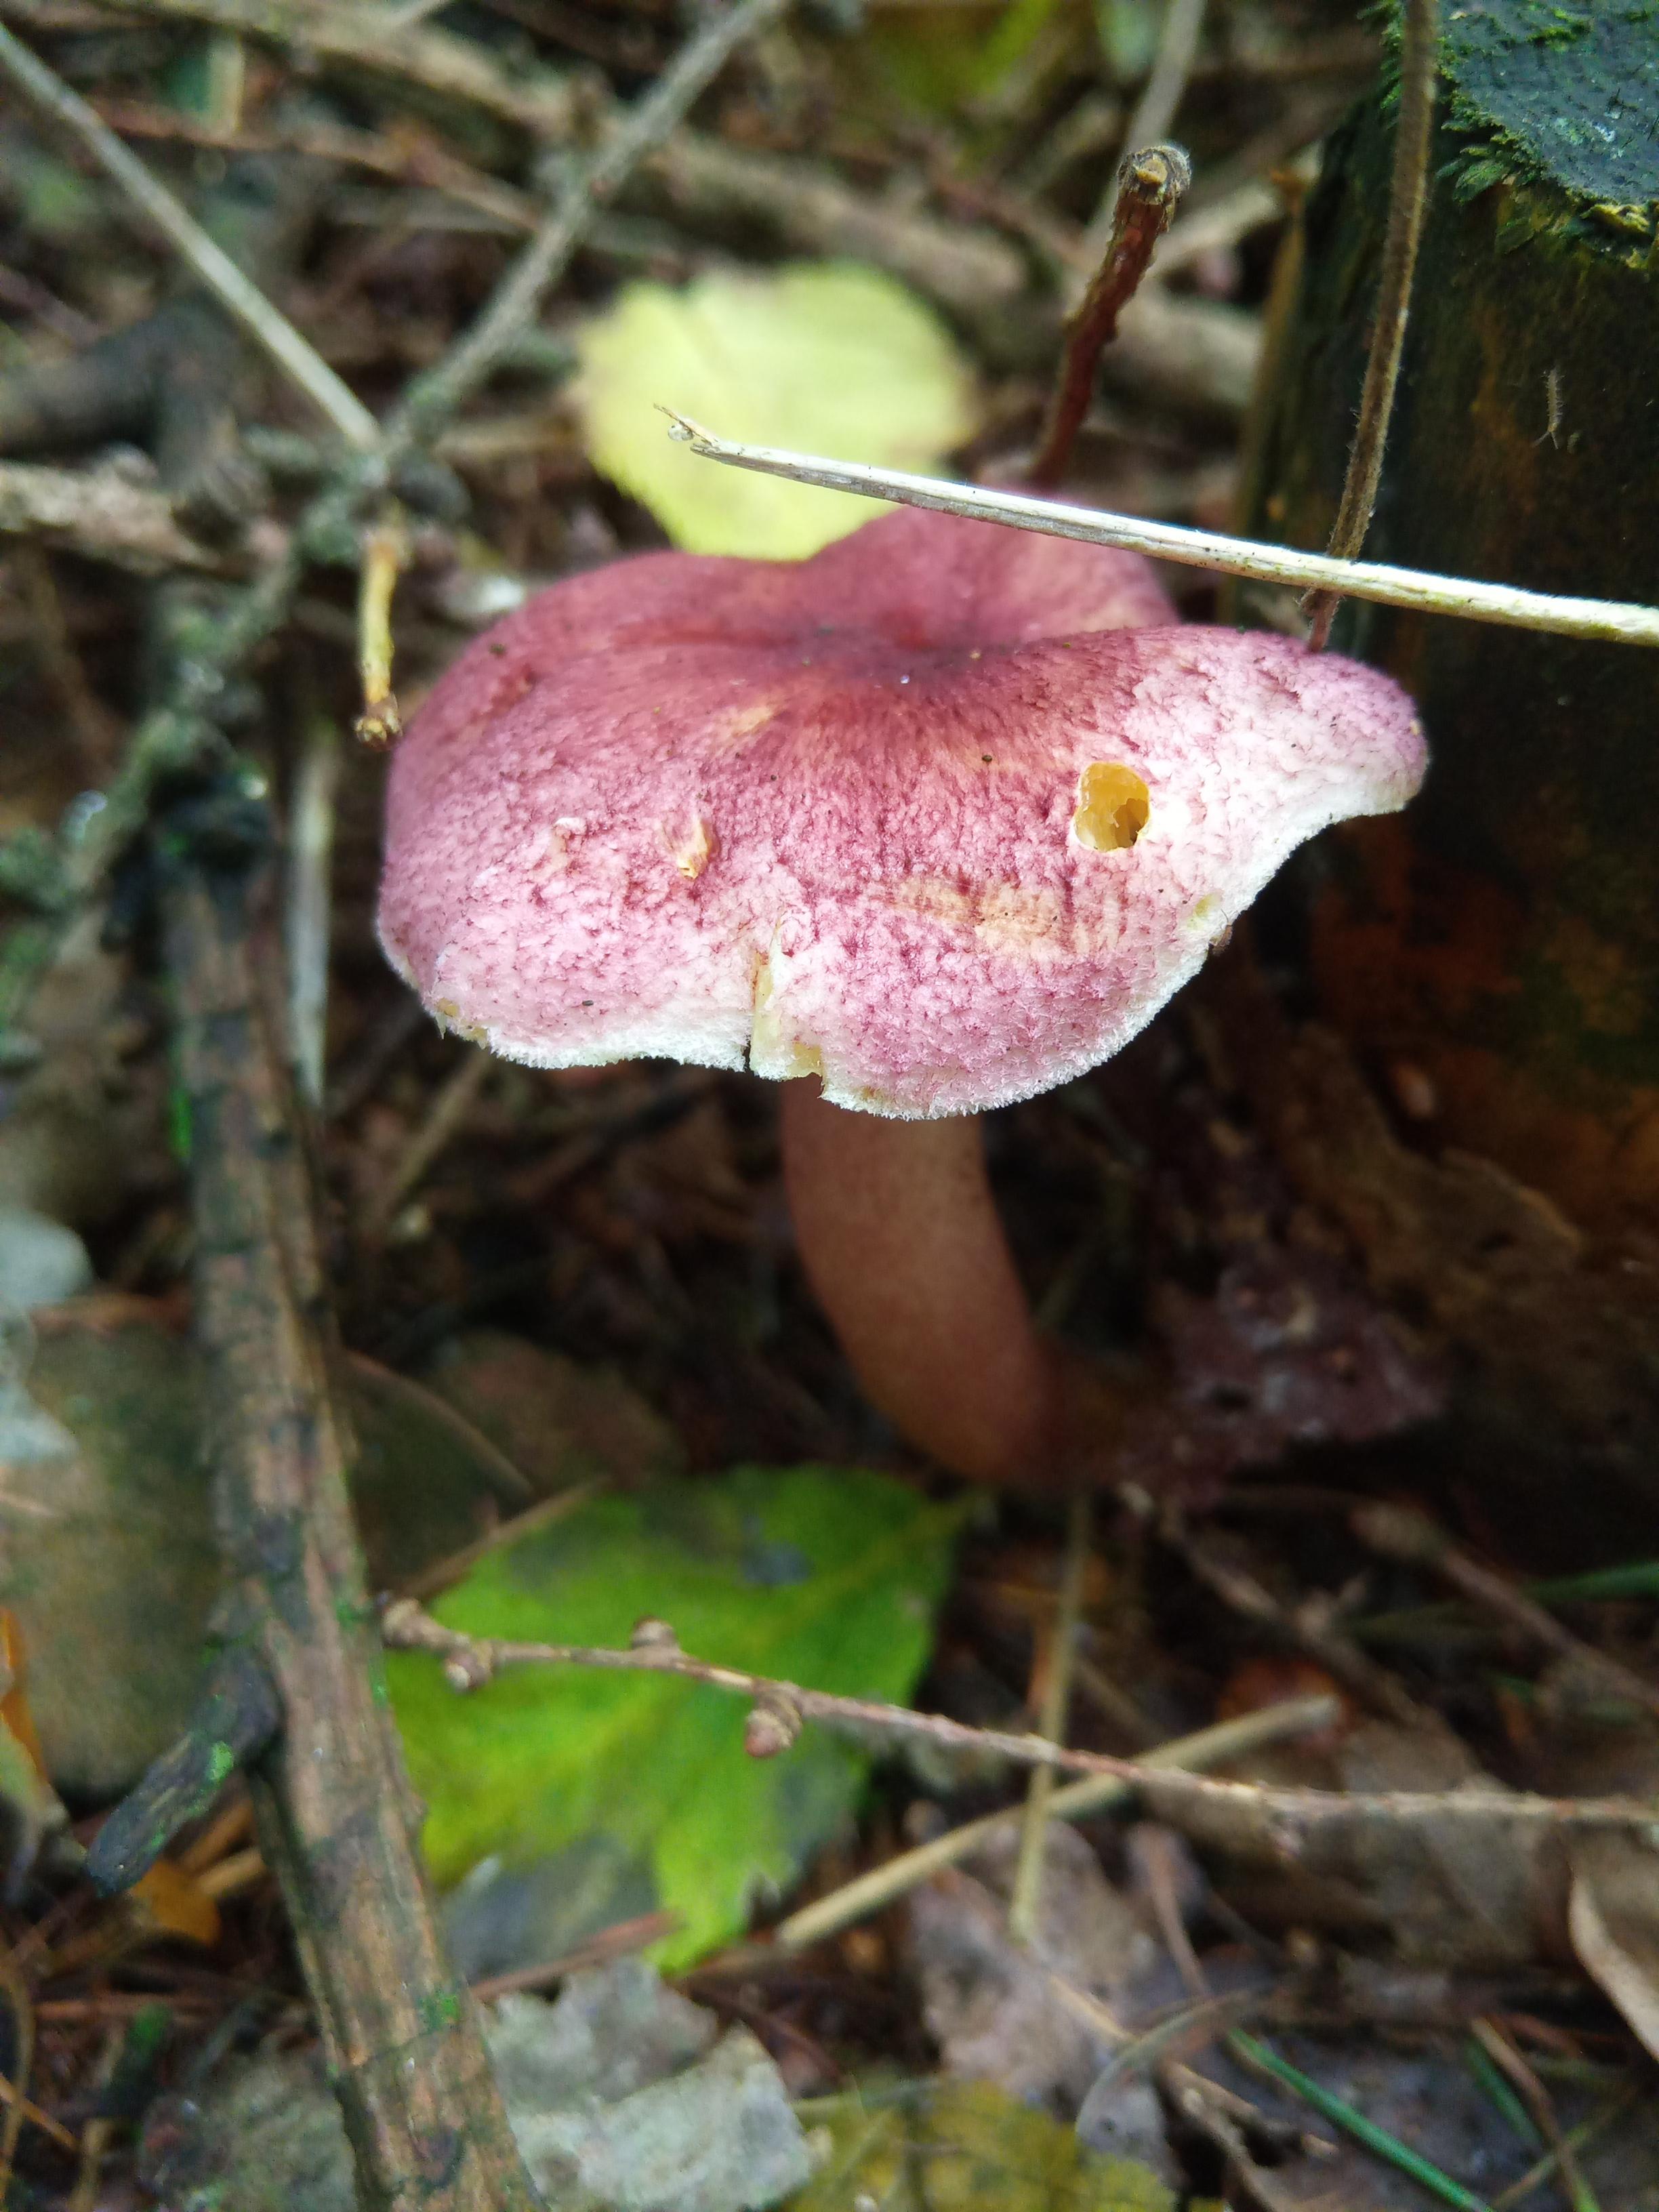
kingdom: Fungi
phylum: Basidiomycota
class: Agaricomycetes
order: Agaricales
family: Tricholomataceae
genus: Tricholomopsis
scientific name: Tricholomopsis rutilans
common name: purpur-væbnerhat
